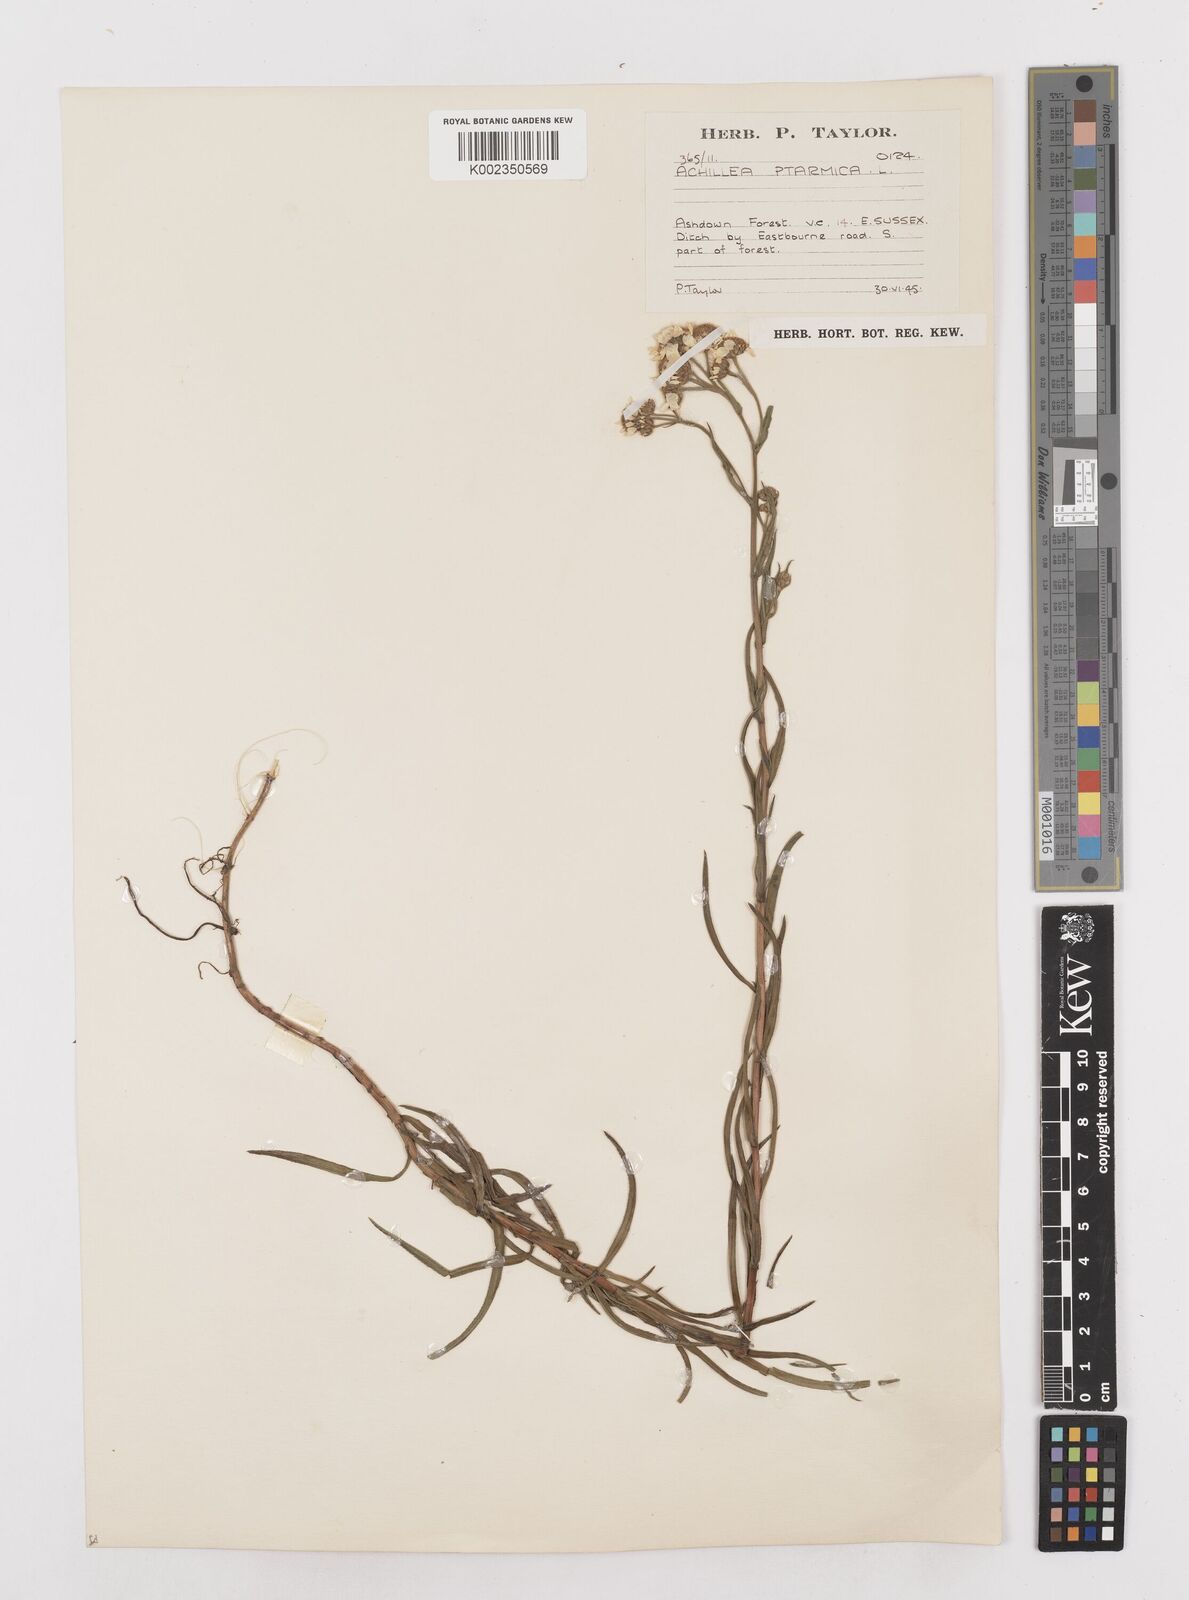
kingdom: Plantae
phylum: Tracheophyta
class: Magnoliopsida
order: Asterales
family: Asteraceae
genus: Achillea
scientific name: Achillea ptarmica
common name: Sneezeweed
